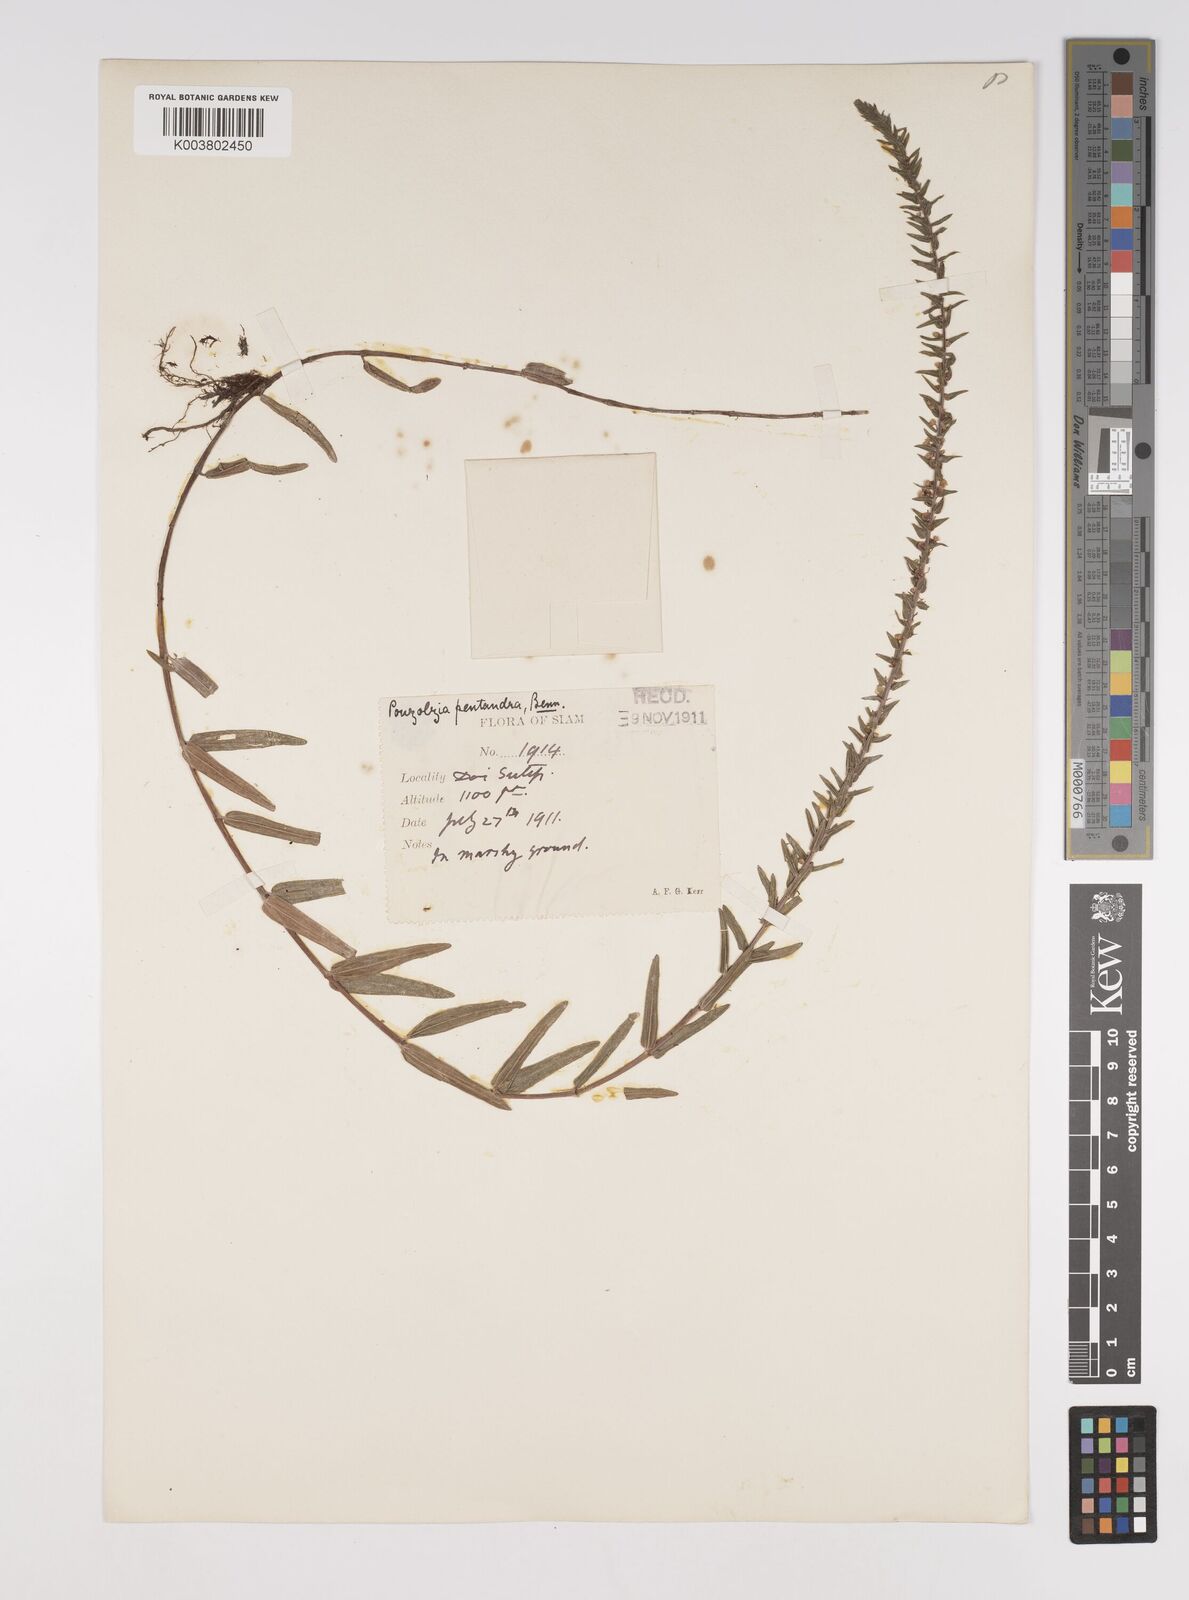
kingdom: Plantae
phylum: Tracheophyta
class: Magnoliopsida
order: Rosales
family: Urticaceae
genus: Gonostegia
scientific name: Gonostegia pentandra
